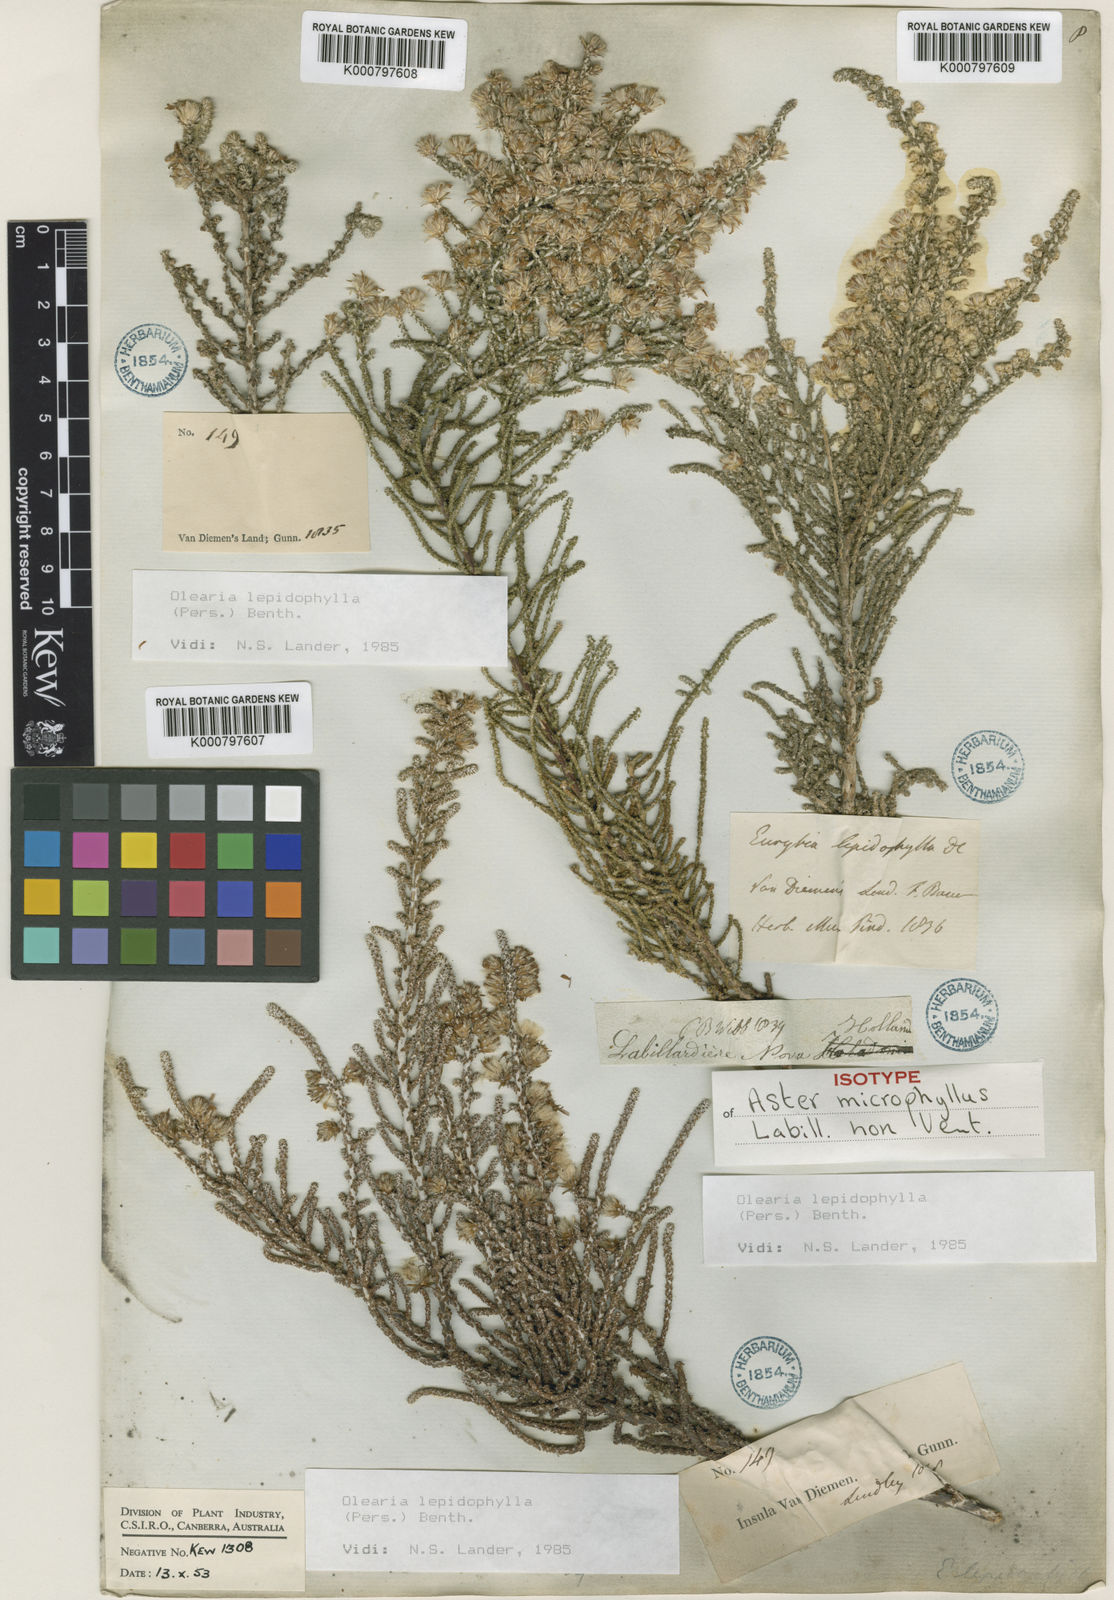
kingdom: Plantae
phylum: Tracheophyta
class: Magnoliopsida
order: Asterales
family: Asteraceae
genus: Olearia
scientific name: Olearia lepidophylla
